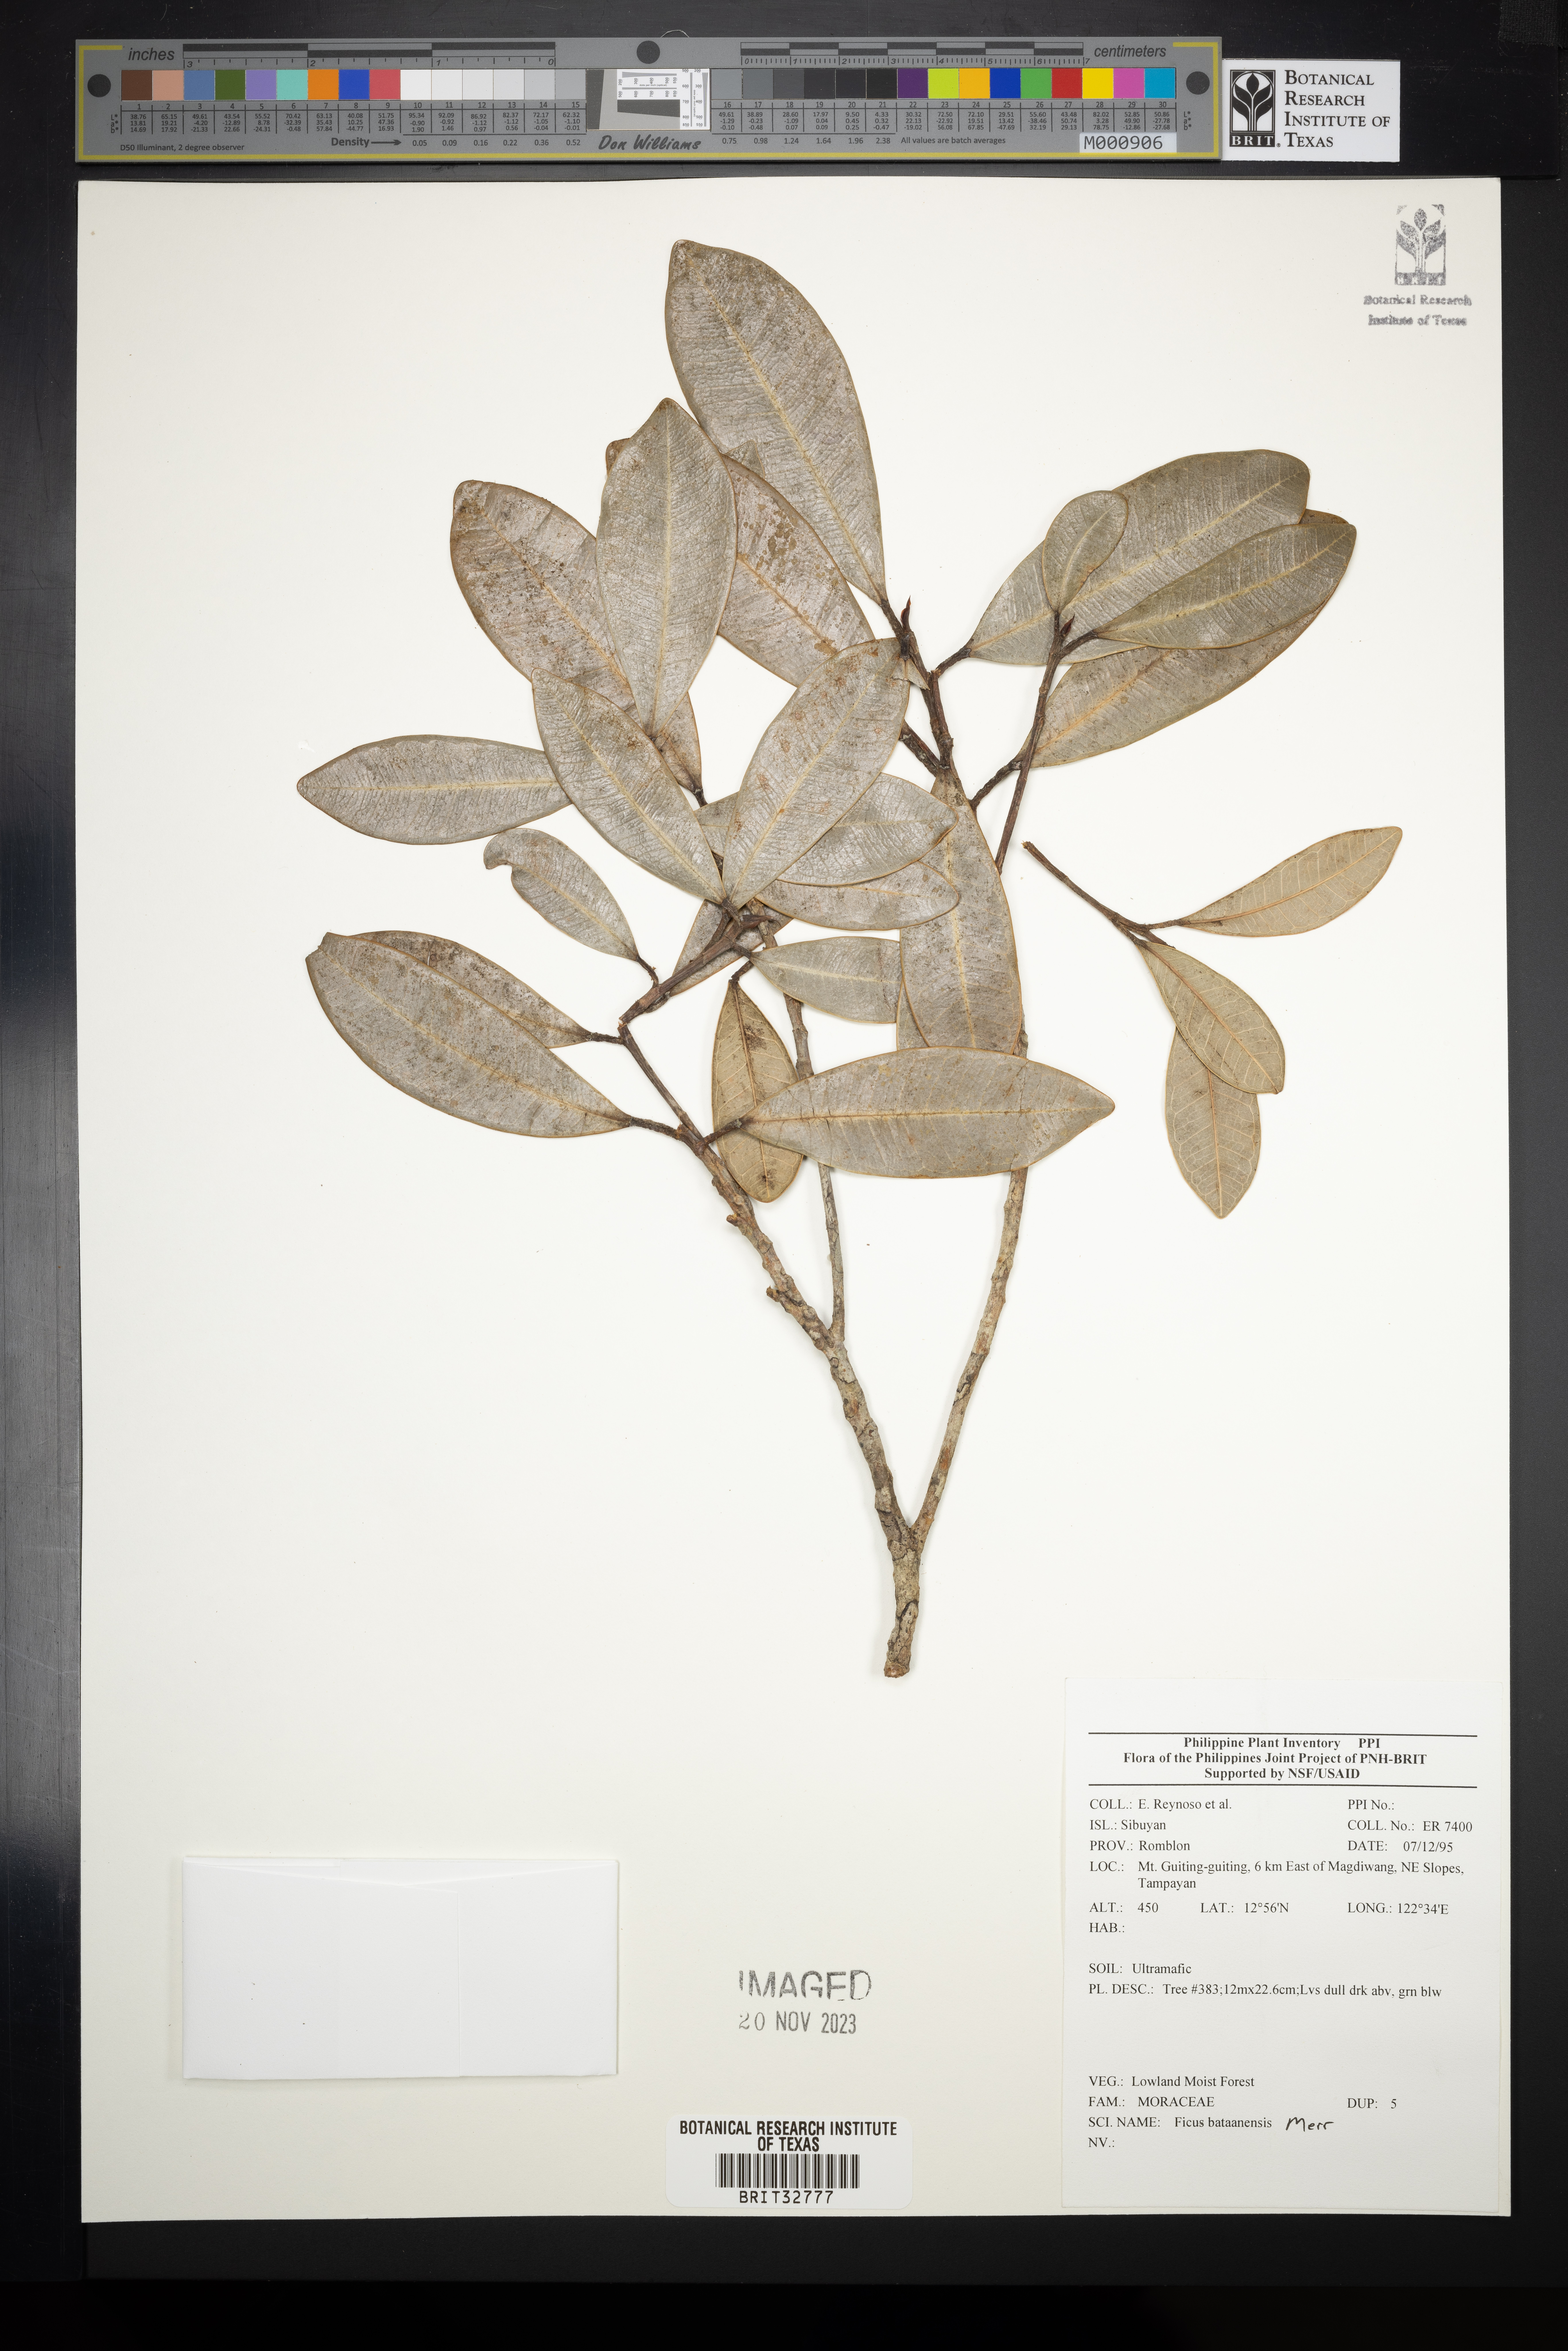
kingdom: Plantae
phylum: Tracheophyta
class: Magnoliopsida
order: Rosales
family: Moraceae
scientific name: Moraceae
